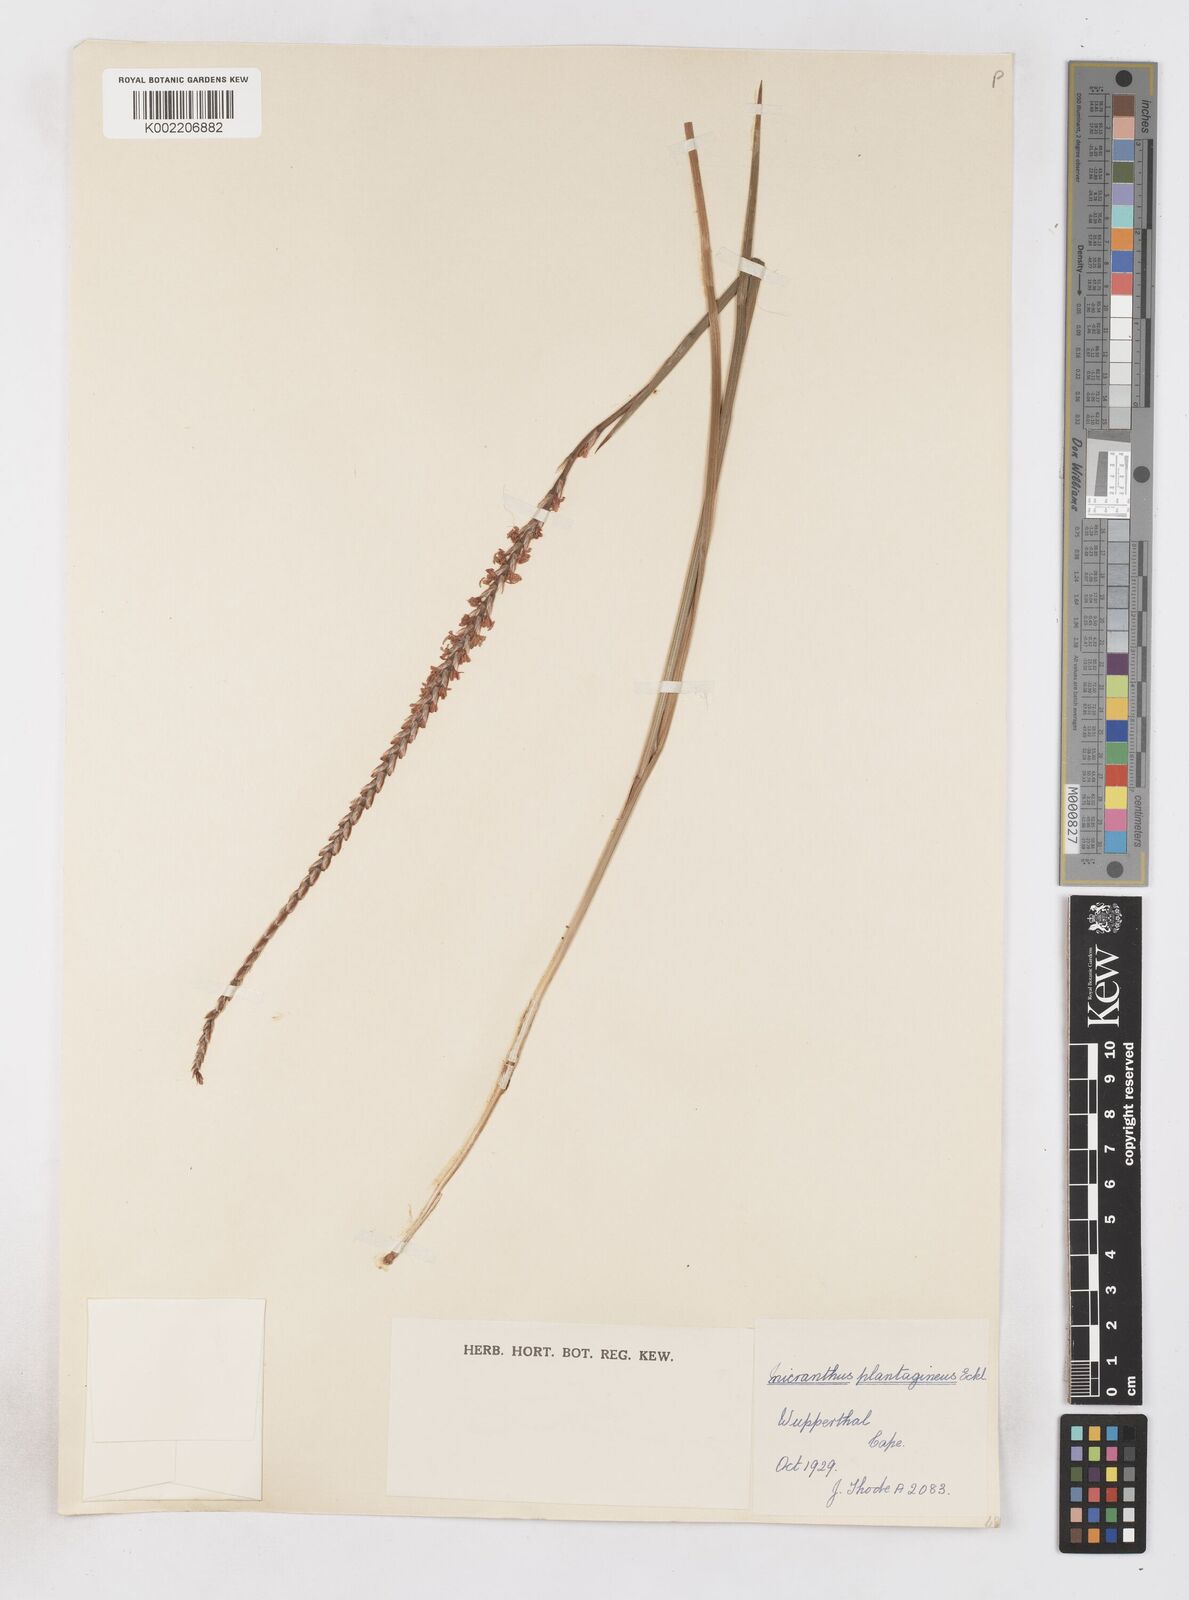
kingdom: Plantae
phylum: Tracheophyta
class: Liliopsida
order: Asparagales
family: Iridaceae
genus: Micranthus
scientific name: Micranthus plantagineus
